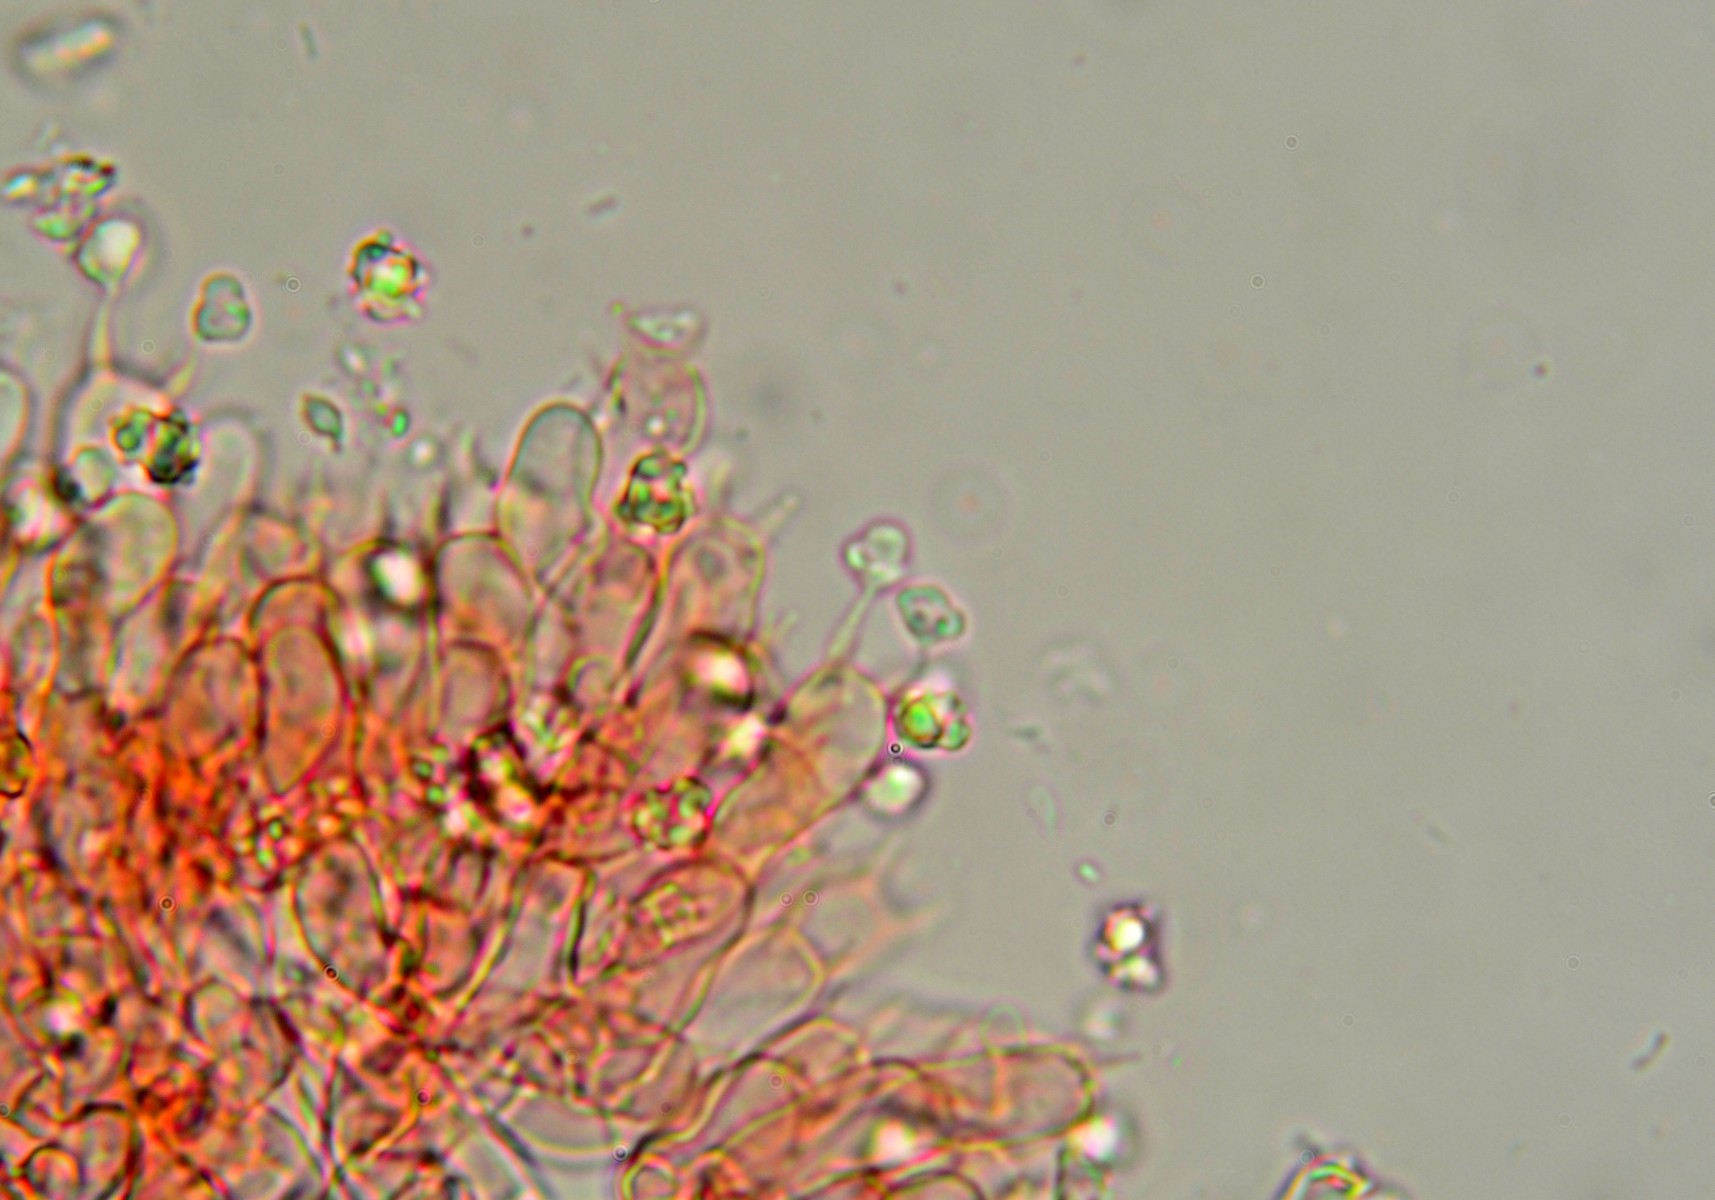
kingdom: Fungi
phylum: Basidiomycota
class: Agaricomycetes
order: Atheliales
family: Atheliaceae
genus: Tylospora
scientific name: Tylospora fibrillosa
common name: vortesporet jordhinde
